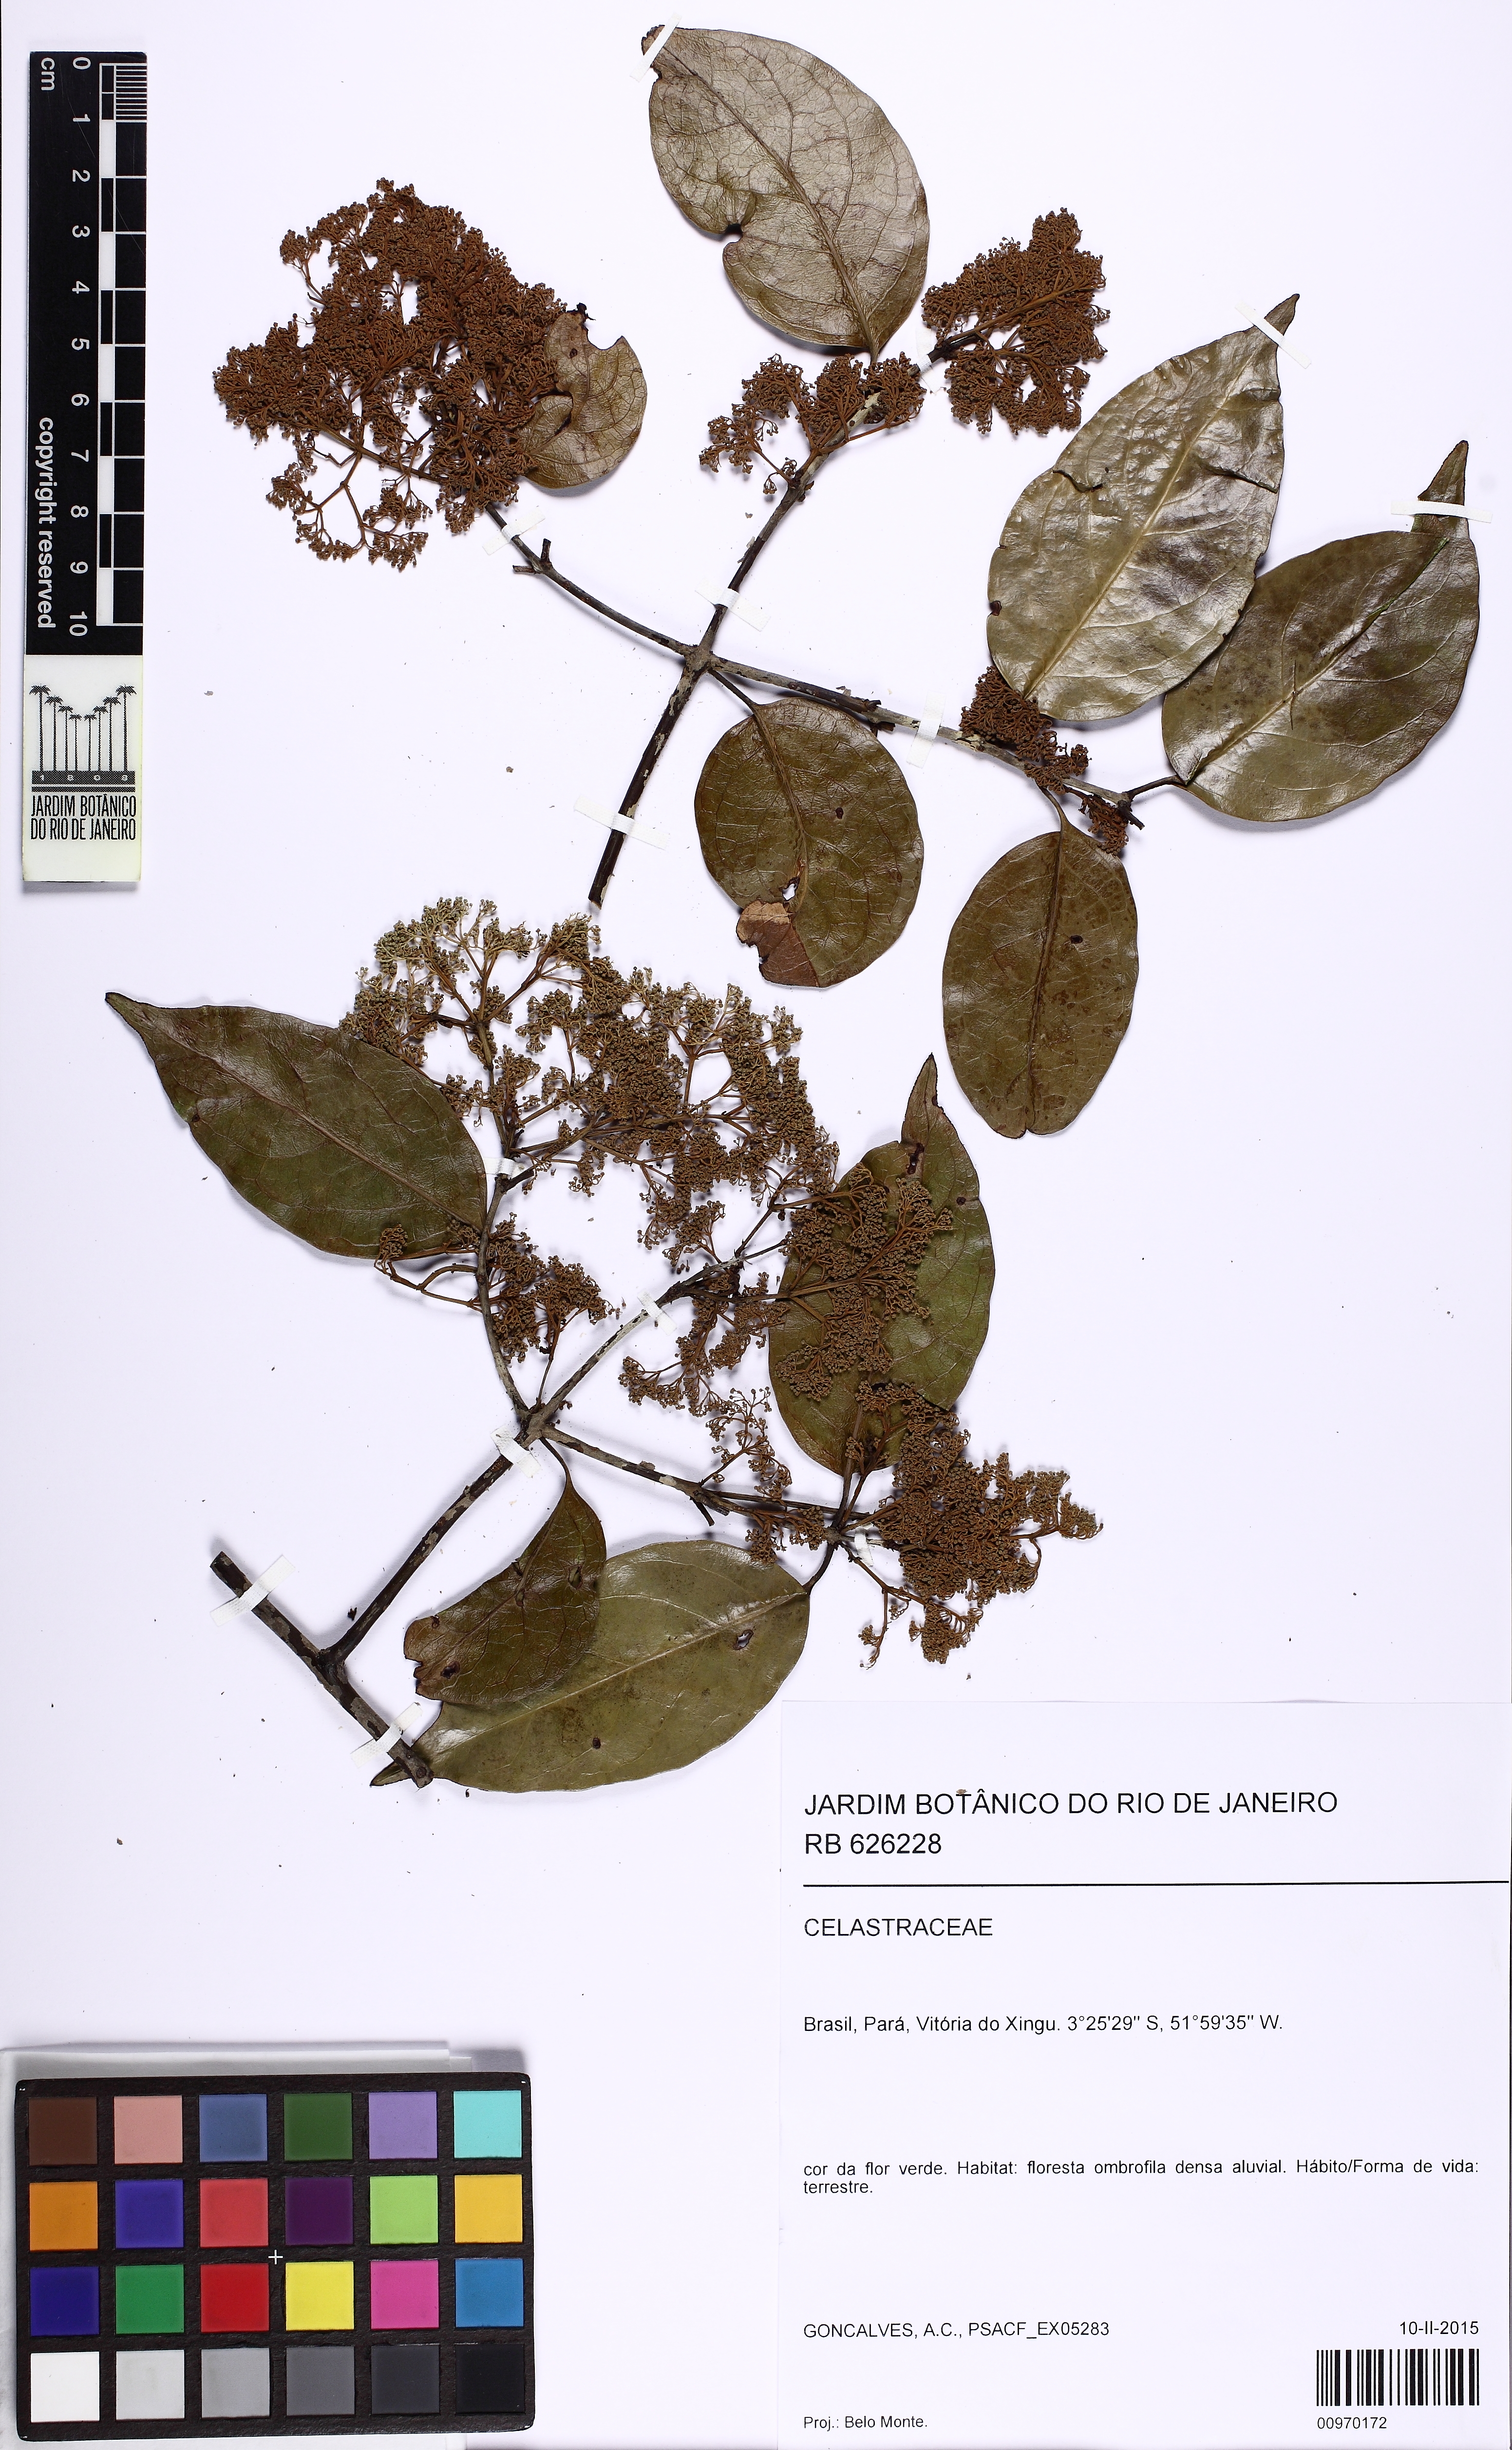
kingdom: Plantae
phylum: Tracheophyta
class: Magnoliopsida
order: Celastrales
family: Celastraceae
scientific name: Celastraceae
